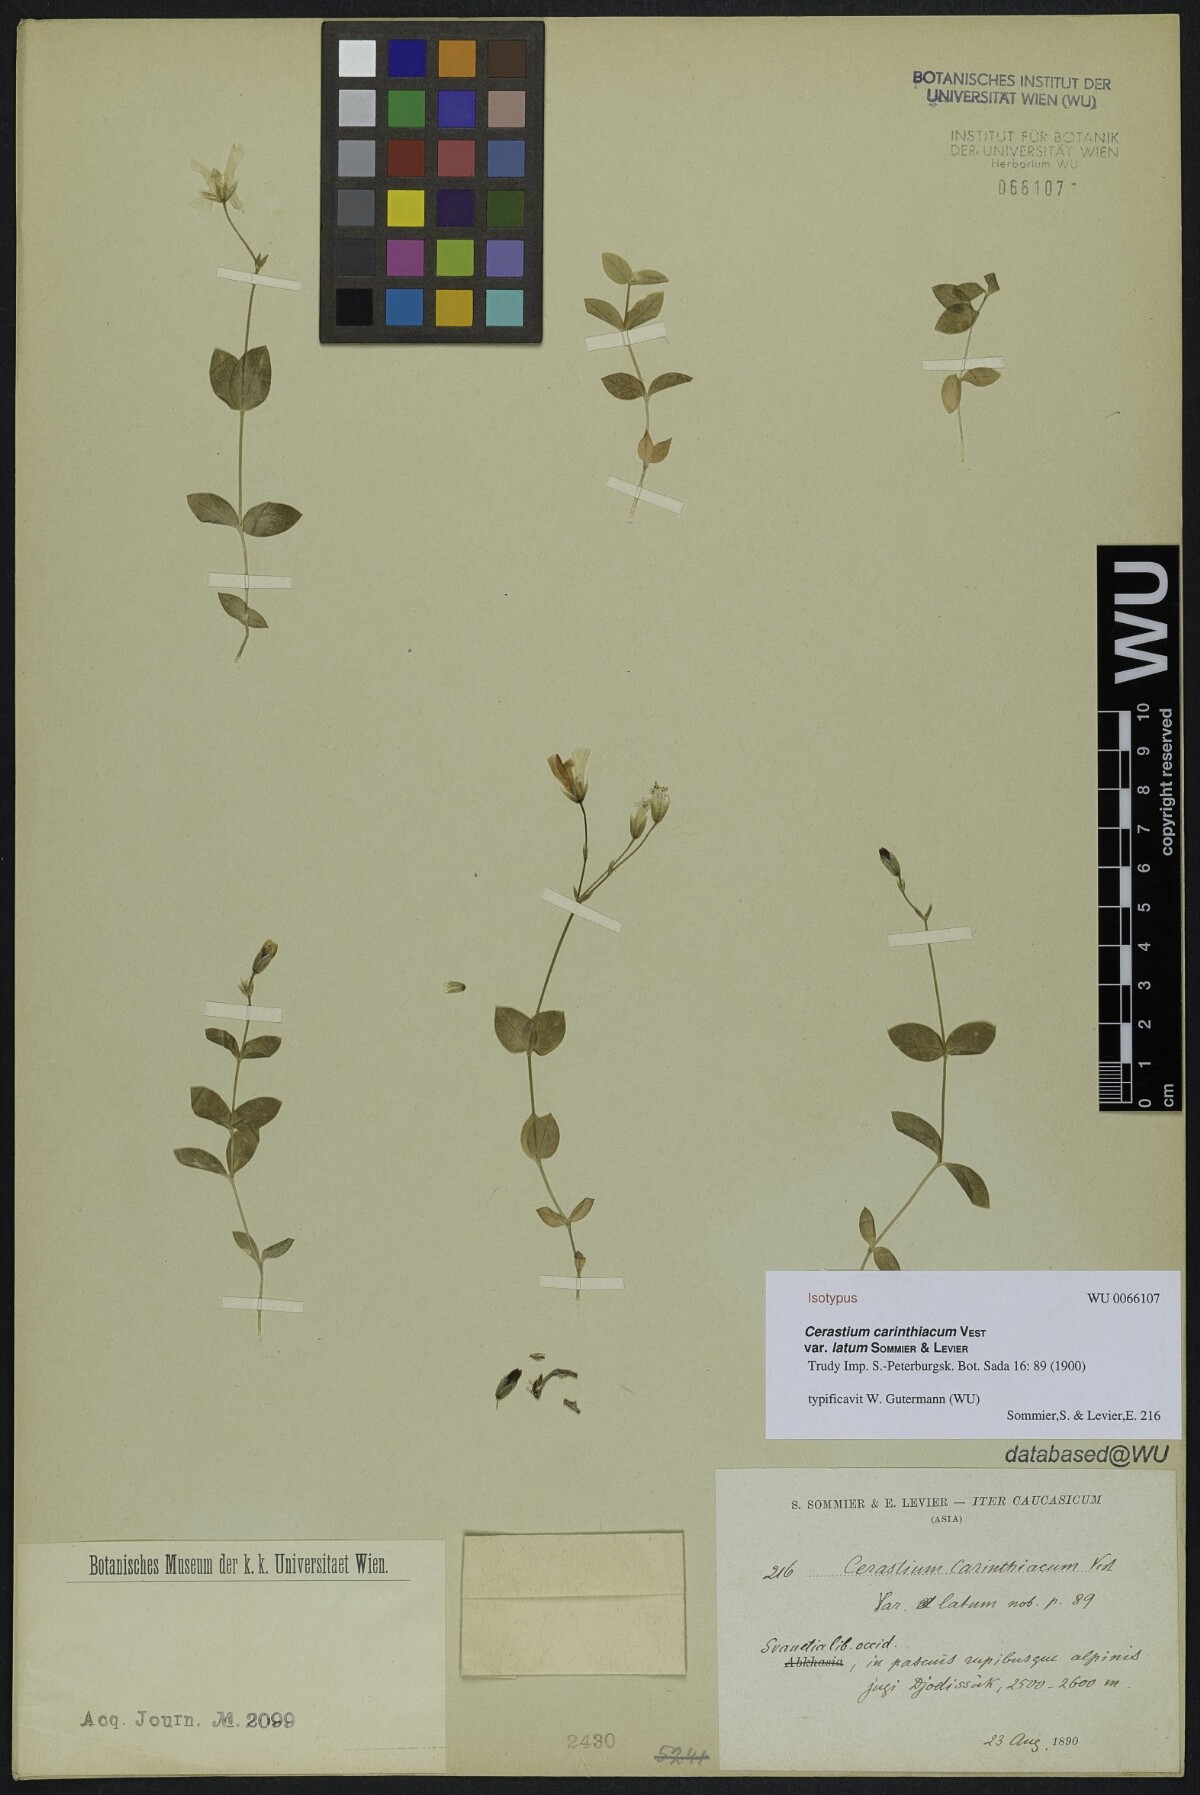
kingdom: Plantae
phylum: Tracheophyta
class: Magnoliopsida
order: Caryophyllales
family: Caryophyllaceae
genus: Cerastium
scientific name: Cerastium carinthiacum
